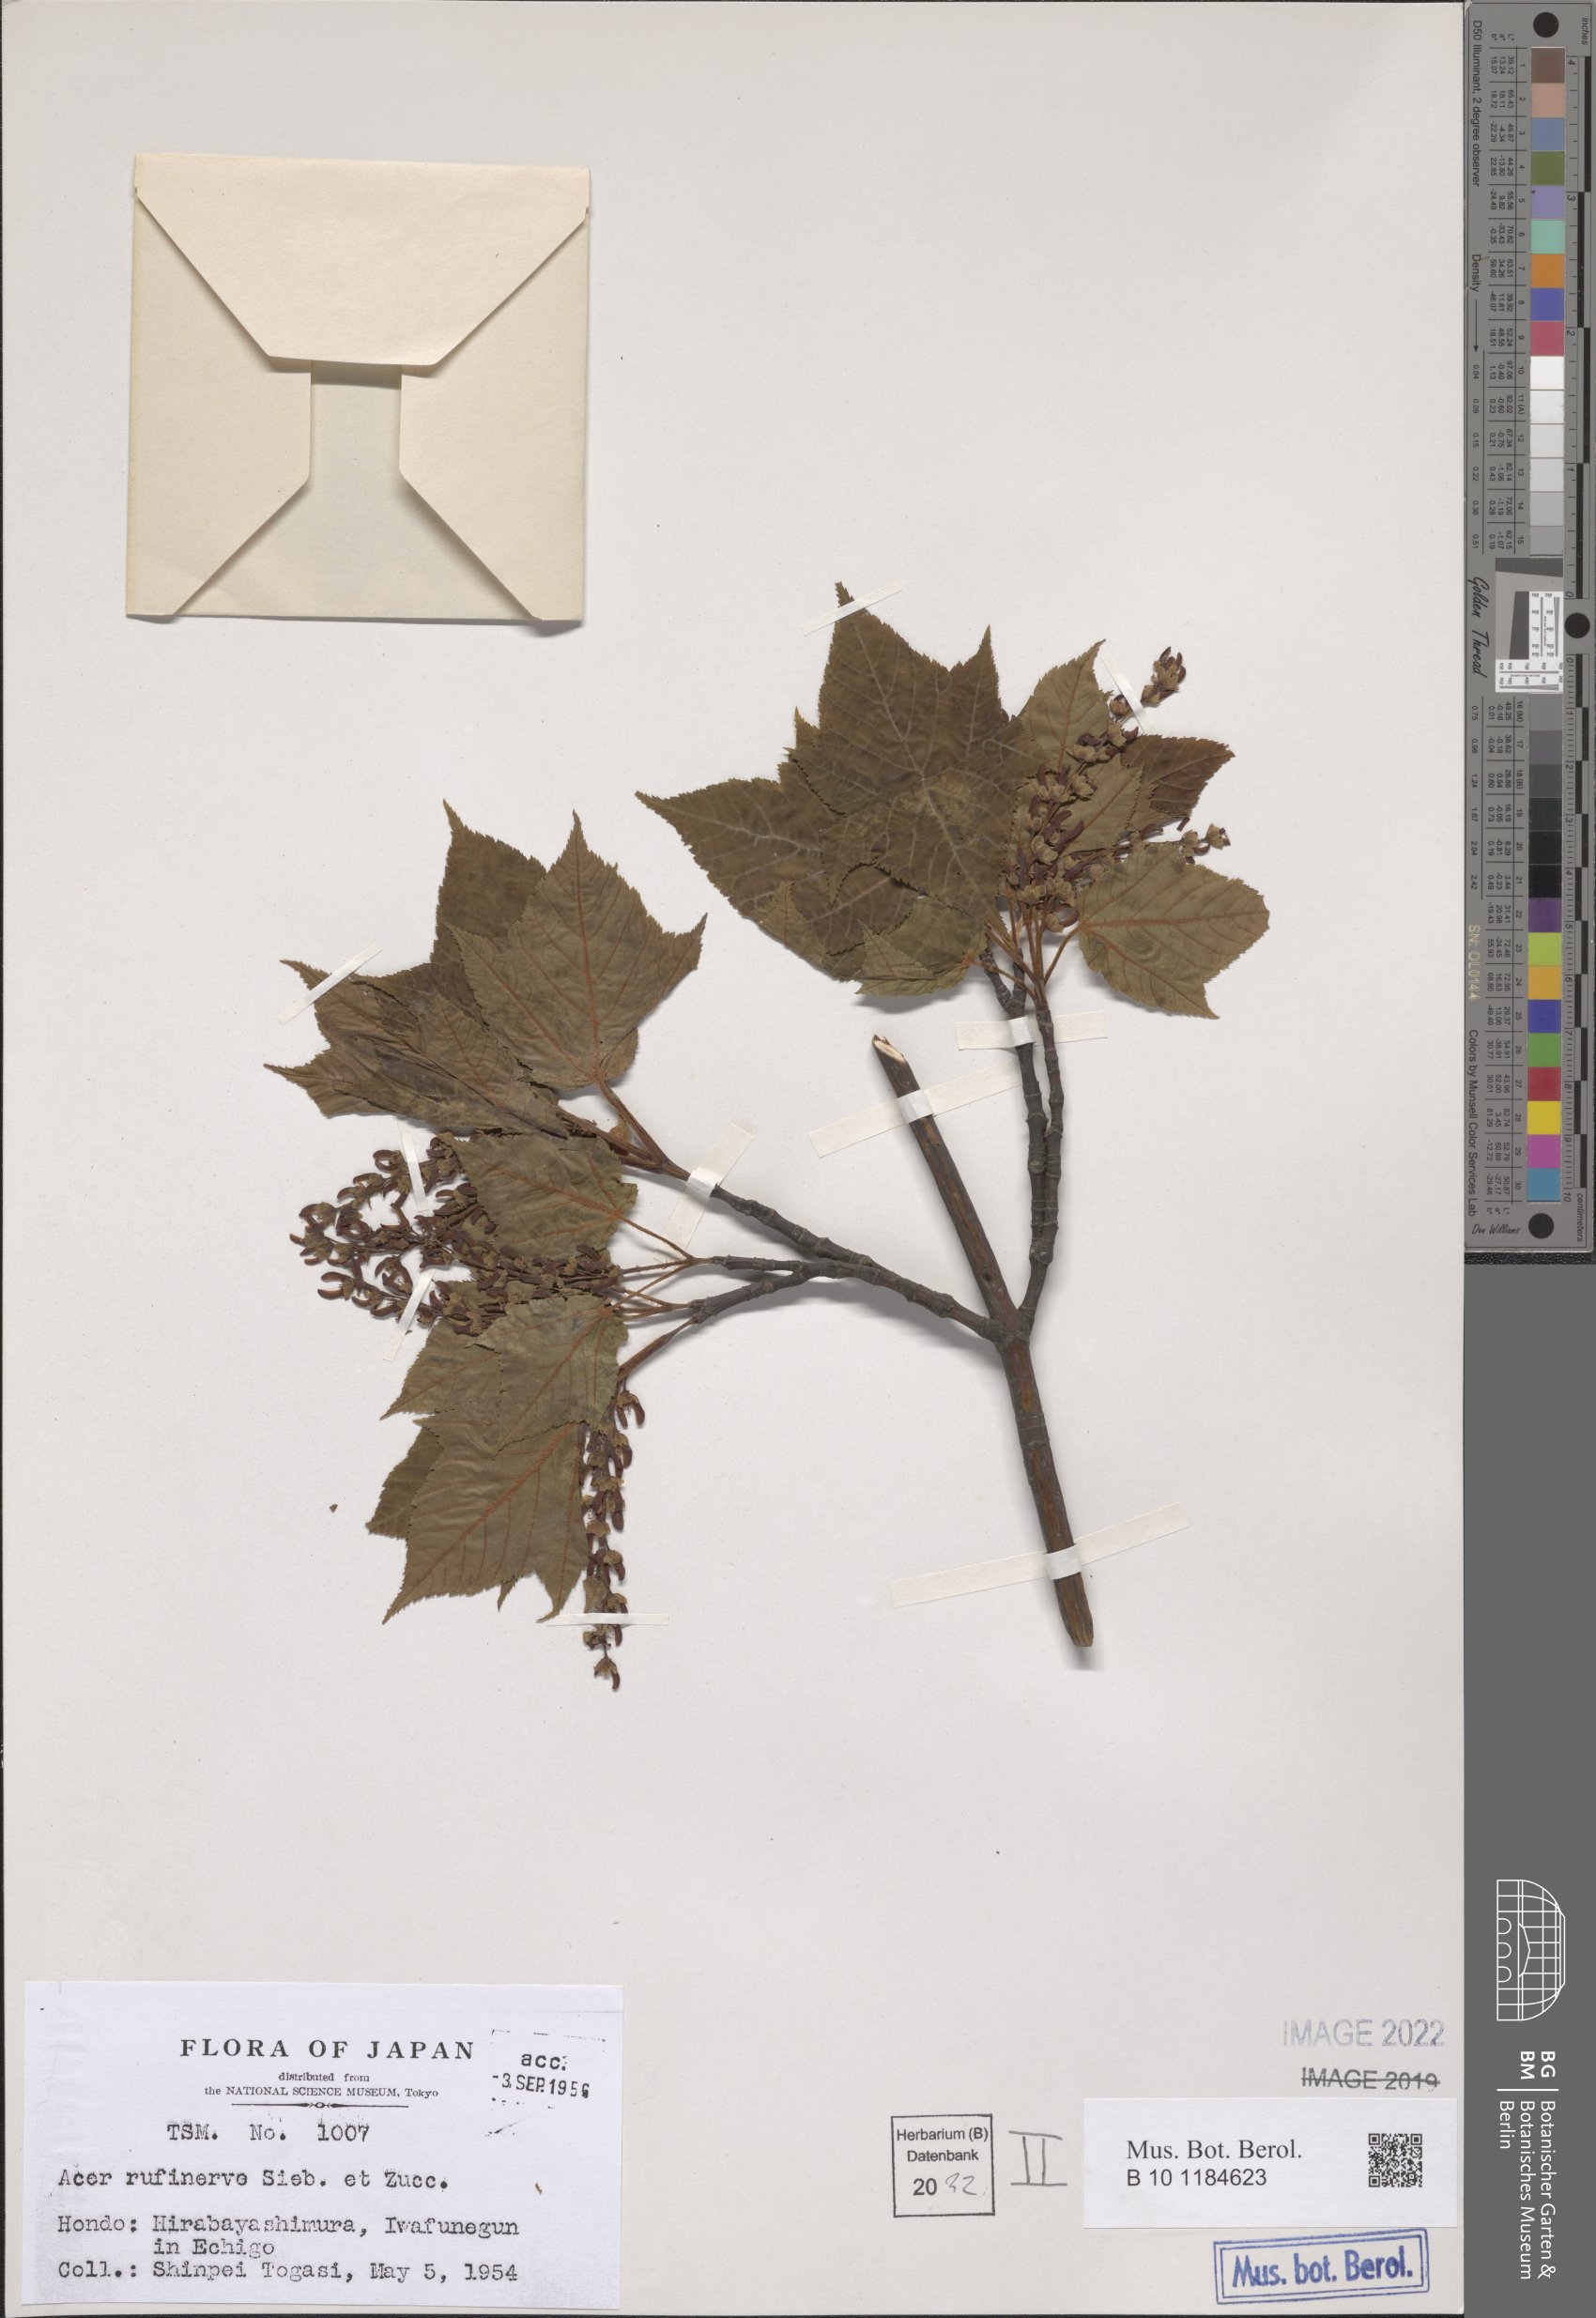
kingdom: Plantae
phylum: Tracheophyta
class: Magnoliopsida
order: Sapindales
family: Sapindaceae
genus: Acer
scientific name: Acer rufinerve
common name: Red veined maple
